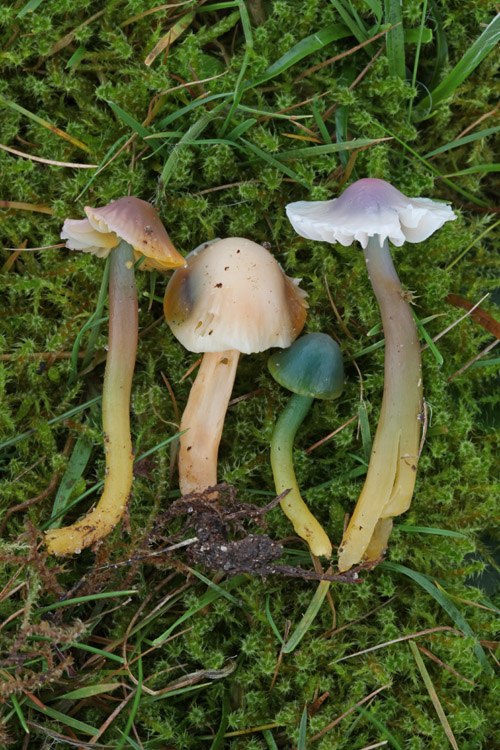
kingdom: Fungi
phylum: Basidiomycota
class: Agaricomycetes
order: Agaricales
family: Hygrophoraceae
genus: Gliophorus
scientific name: Gliophorus psittacinus
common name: papegøje-vokshat
